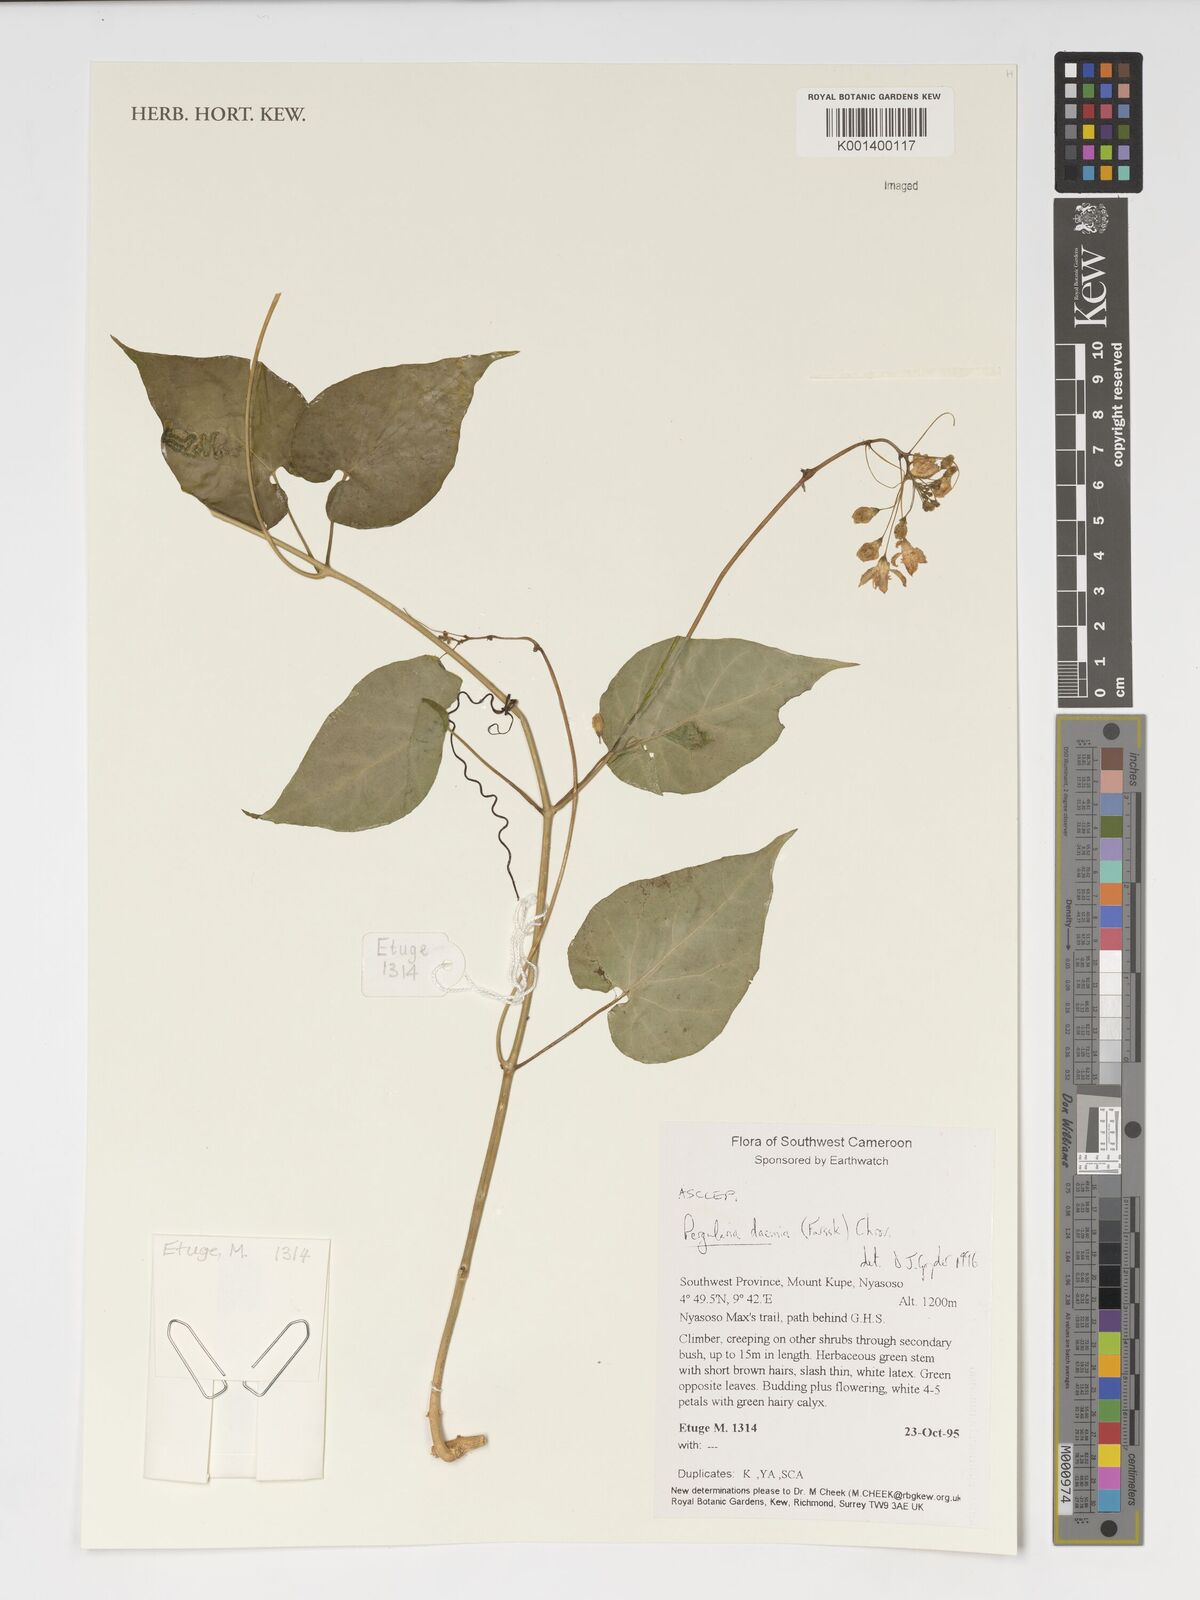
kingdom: Plantae
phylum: Tracheophyta
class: Magnoliopsida
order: Gentianales
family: Apocynaceae
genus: Pergularia
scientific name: Pergularia daemia
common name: Trellis-vine
